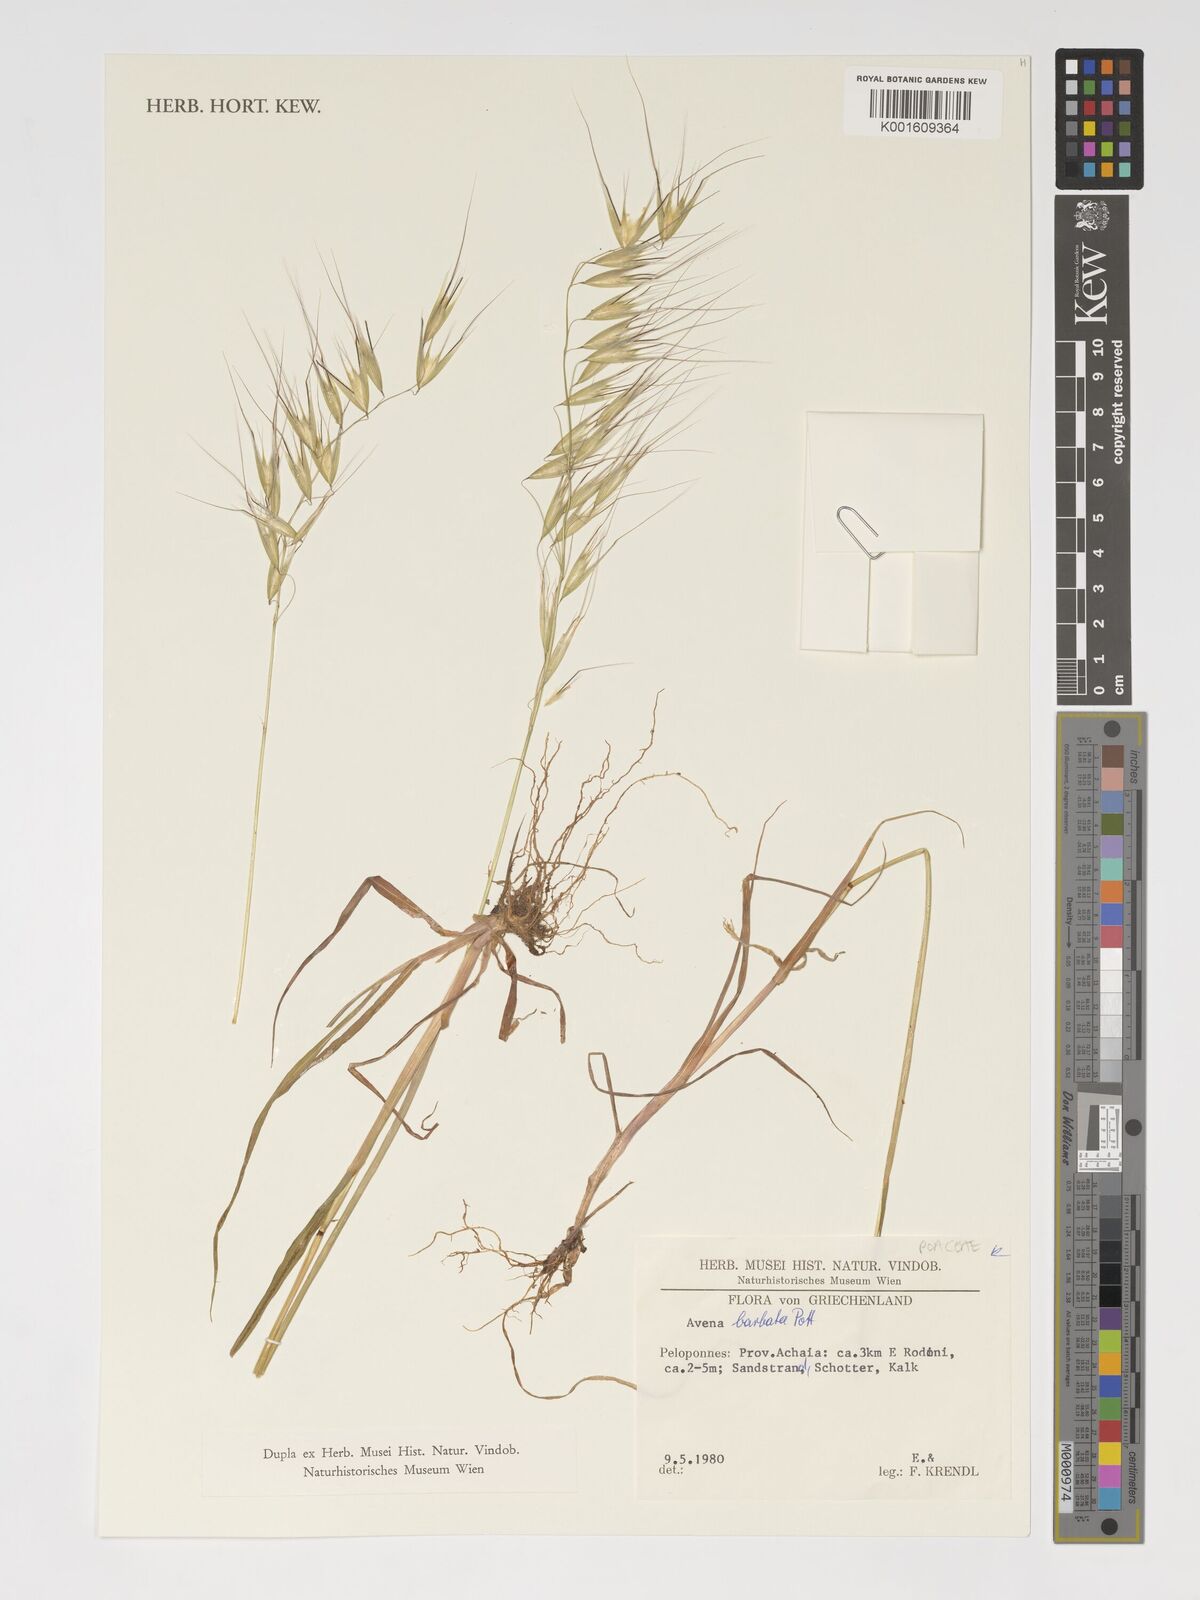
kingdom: Plantae
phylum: Tracheophyta
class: Liliopsida
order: Poales
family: Poaceae
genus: Avena
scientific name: Avena barbata
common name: Slender oat
